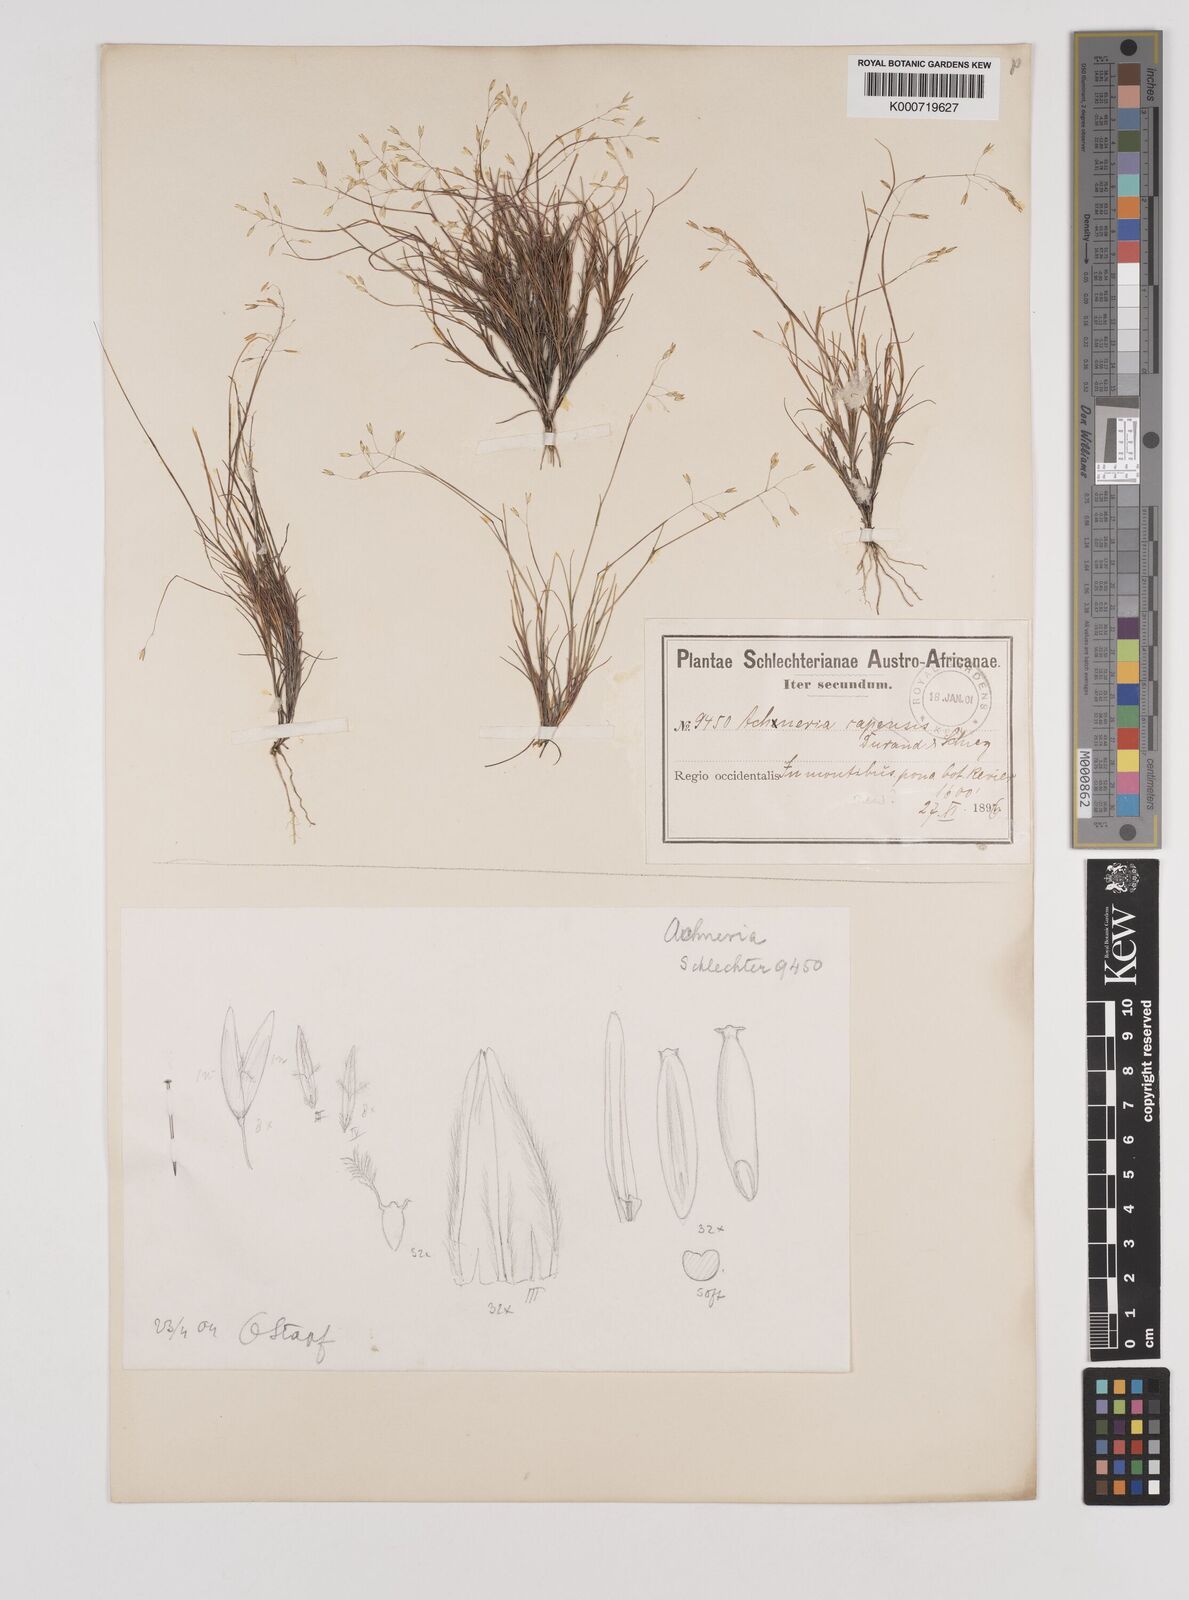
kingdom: Plantae
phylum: Tracheophyta
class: Liliopsida
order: Poales
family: Poaceae
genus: Pentameris
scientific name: Pentameris malouinensis
